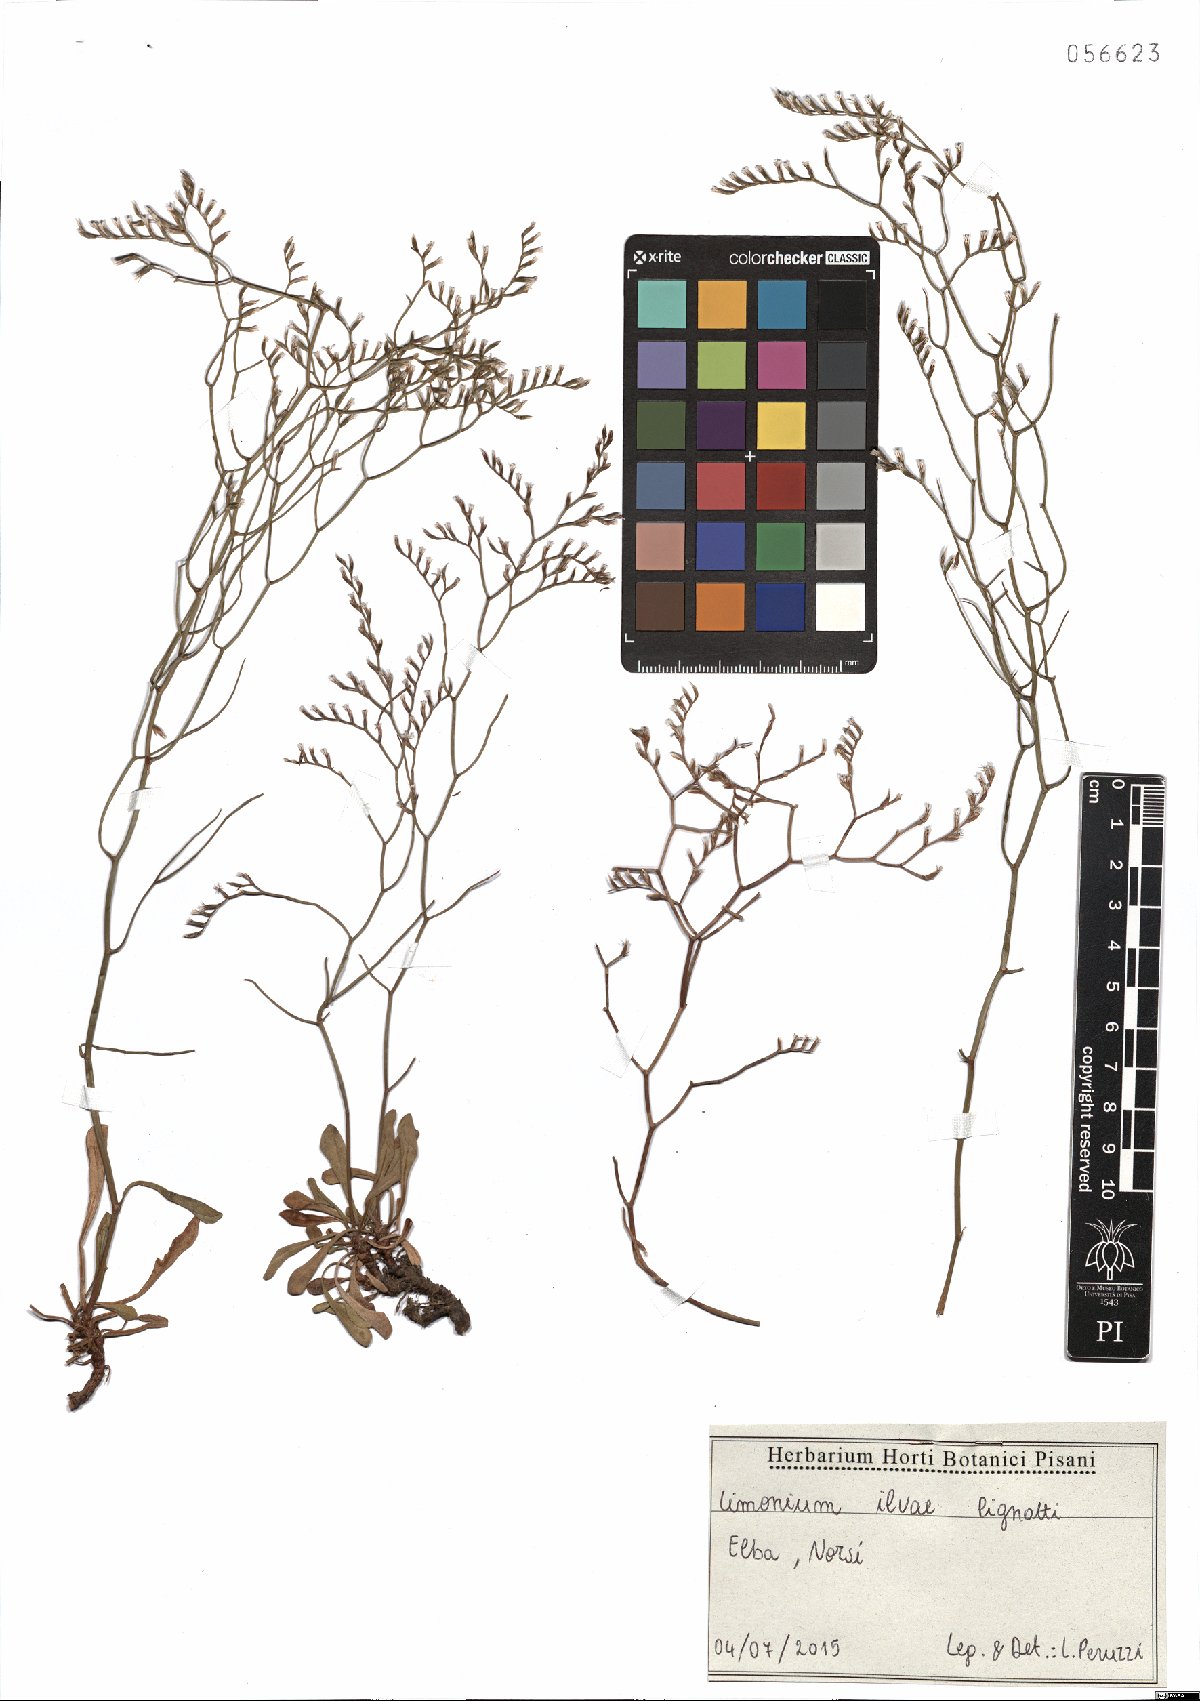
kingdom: Plantae
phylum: Tracheophyta
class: Magnoliopsida
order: Caryophyllales
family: Plumbaginaceae
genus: Limonium
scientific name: Limonium ilvae
